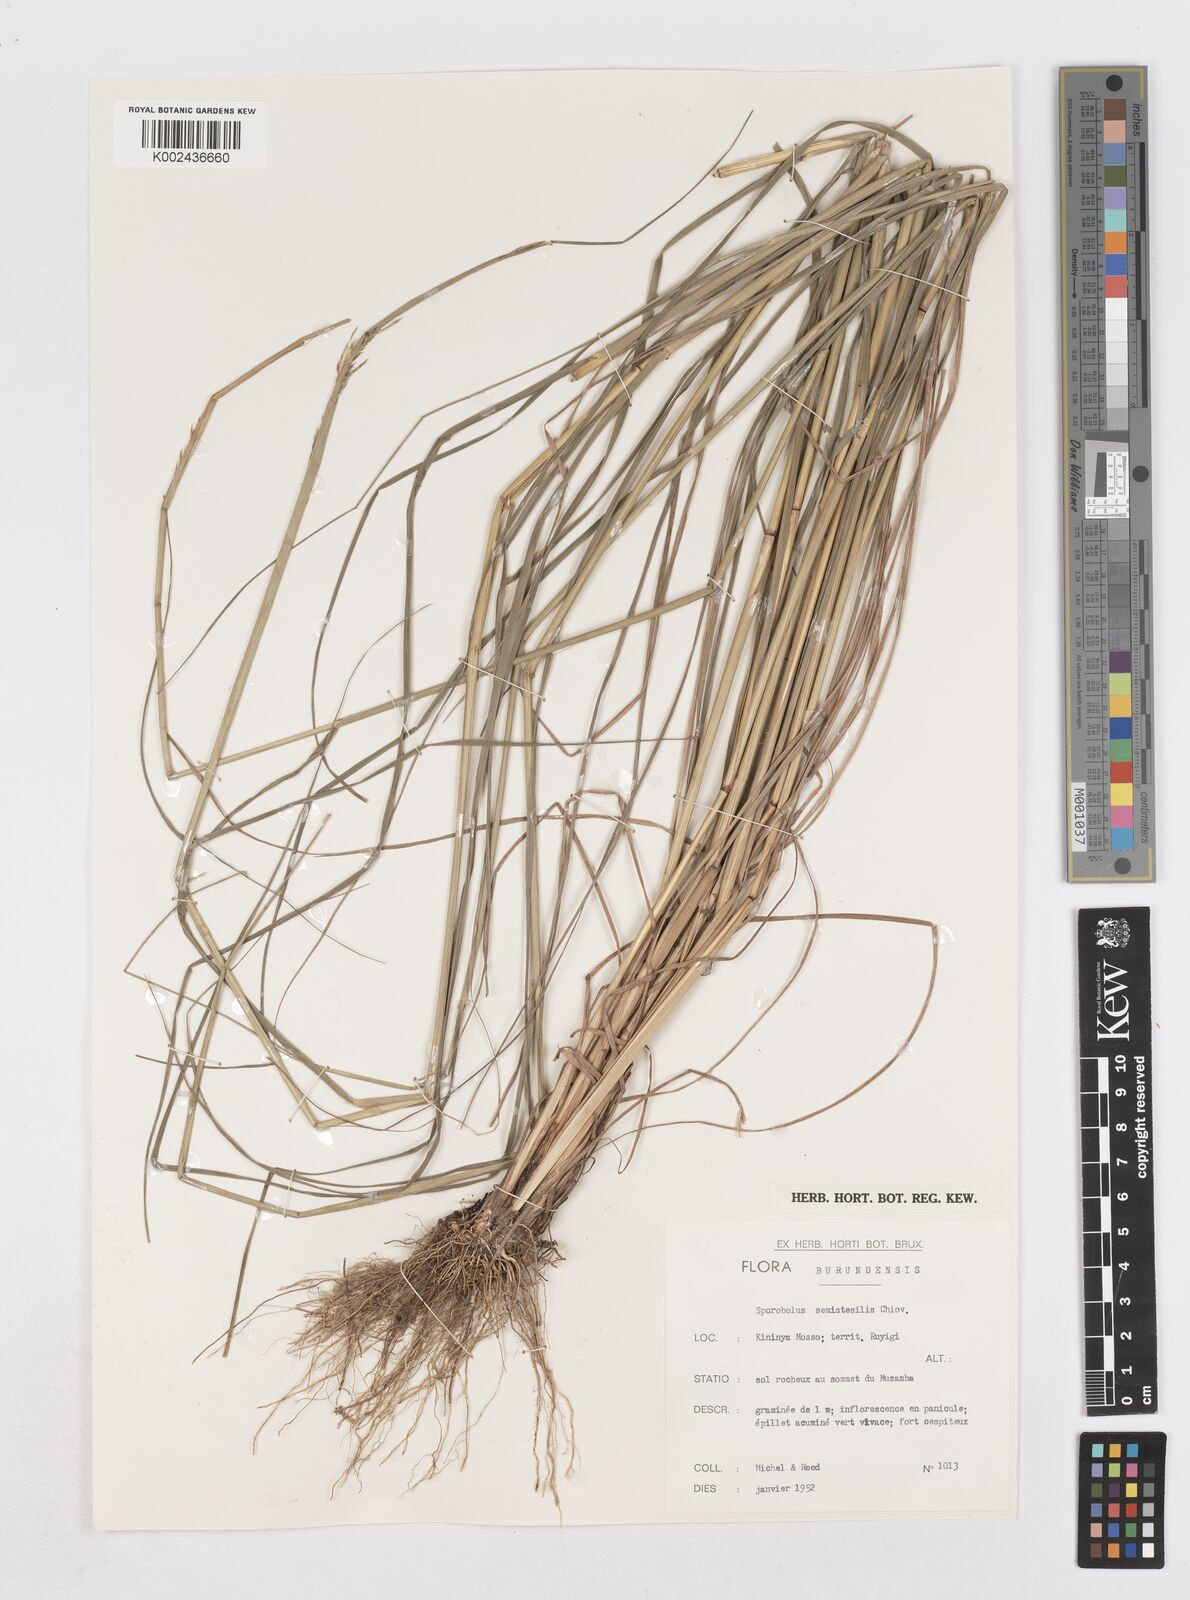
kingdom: Plantae
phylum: Tracheophyta
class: Liliopsida
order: Poales
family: Poaceae
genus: Sporobolus
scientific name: Sporobolus sanguineus
